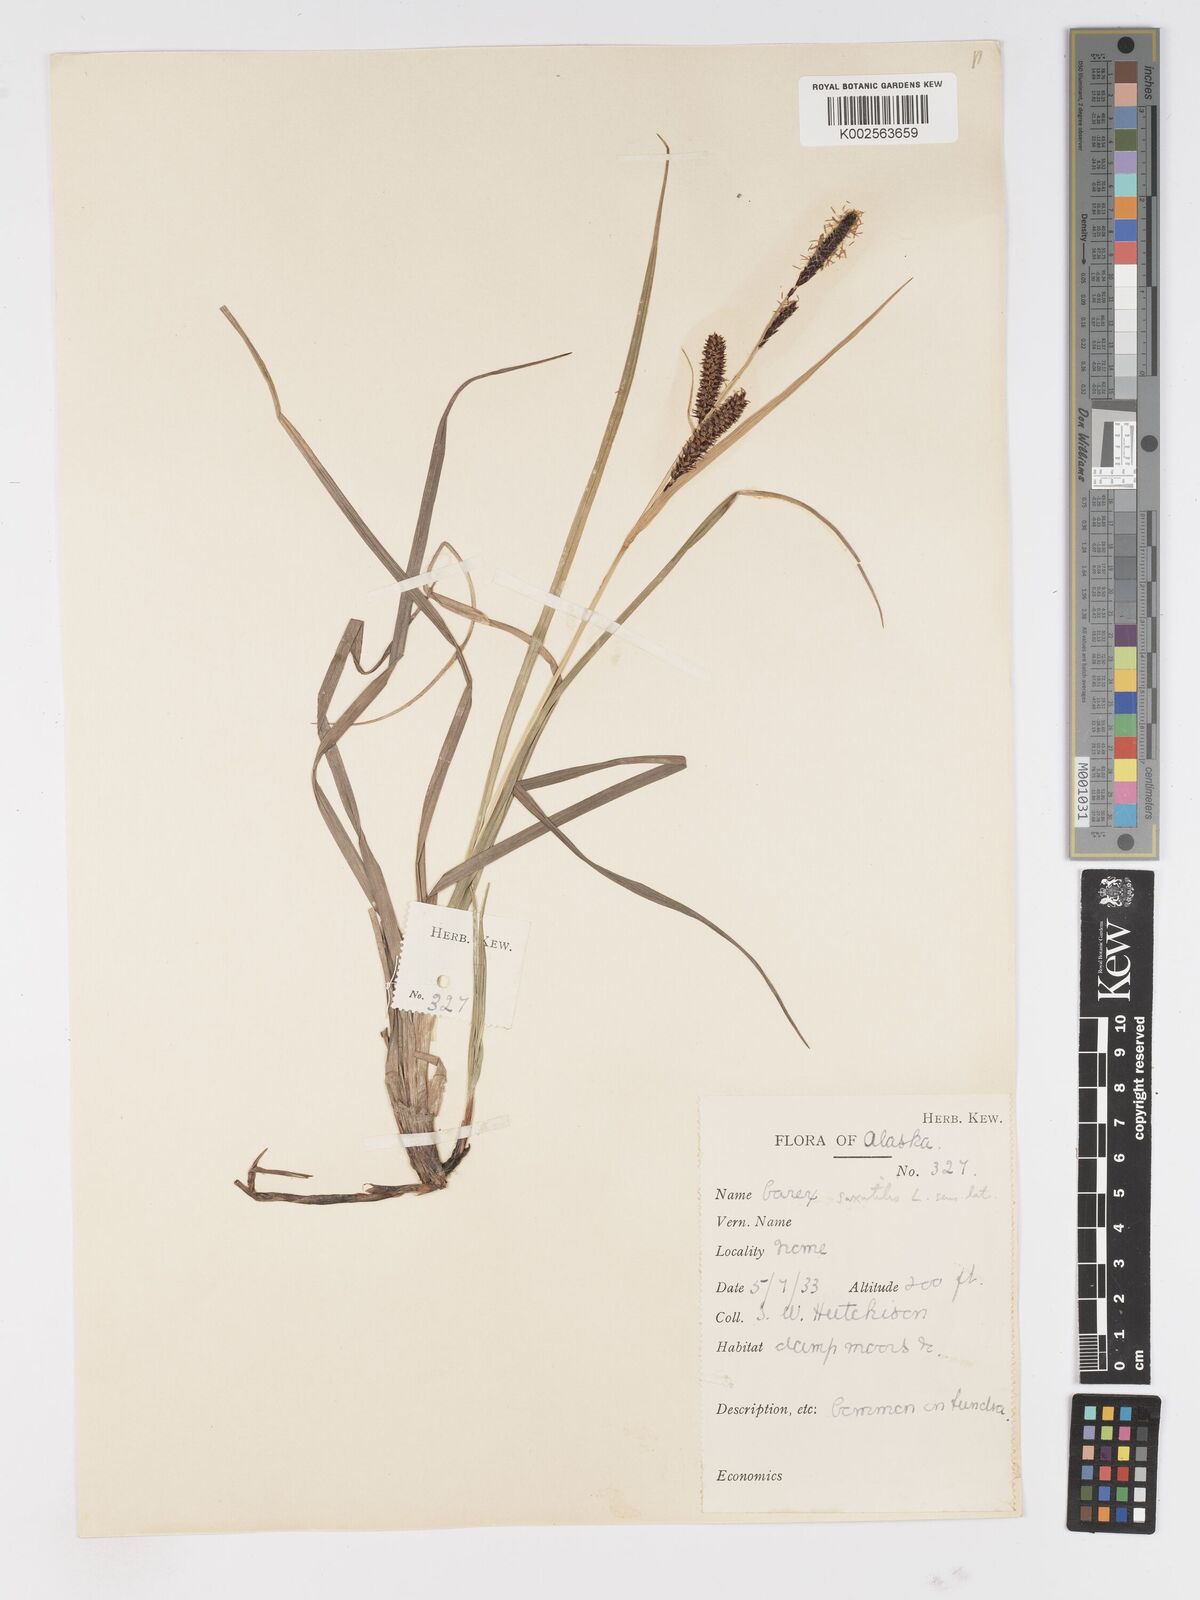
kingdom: Plantae
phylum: Tracheophyta
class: Liliopsida
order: Poales
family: Cyperaceae
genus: Carex
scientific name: Carex saxatilis
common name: Russet sedge
